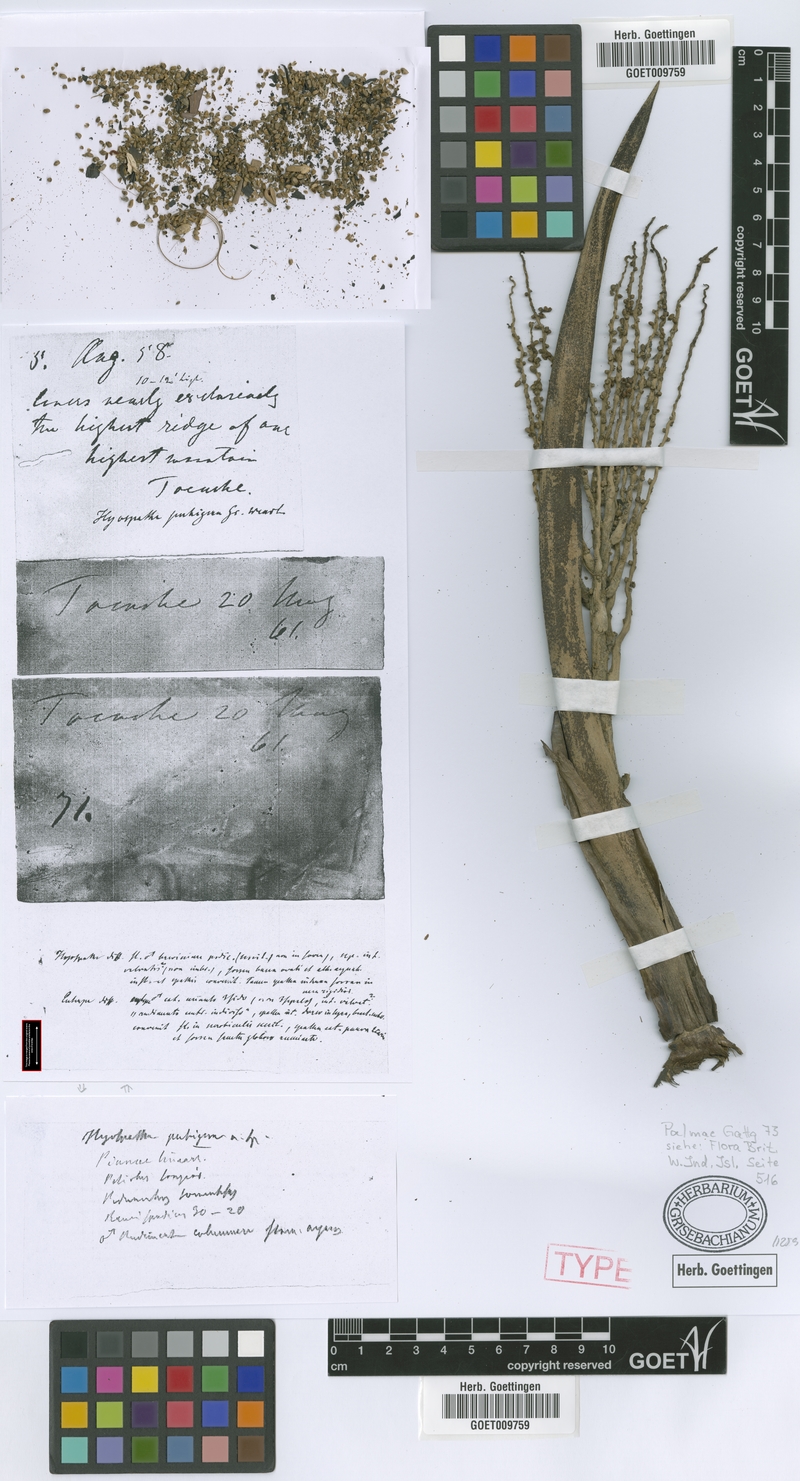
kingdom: Plantae
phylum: Tracheophyta
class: Liliopsida
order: Arecales
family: Arecaceae
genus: Prestoea
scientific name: Prestoea pubigera
